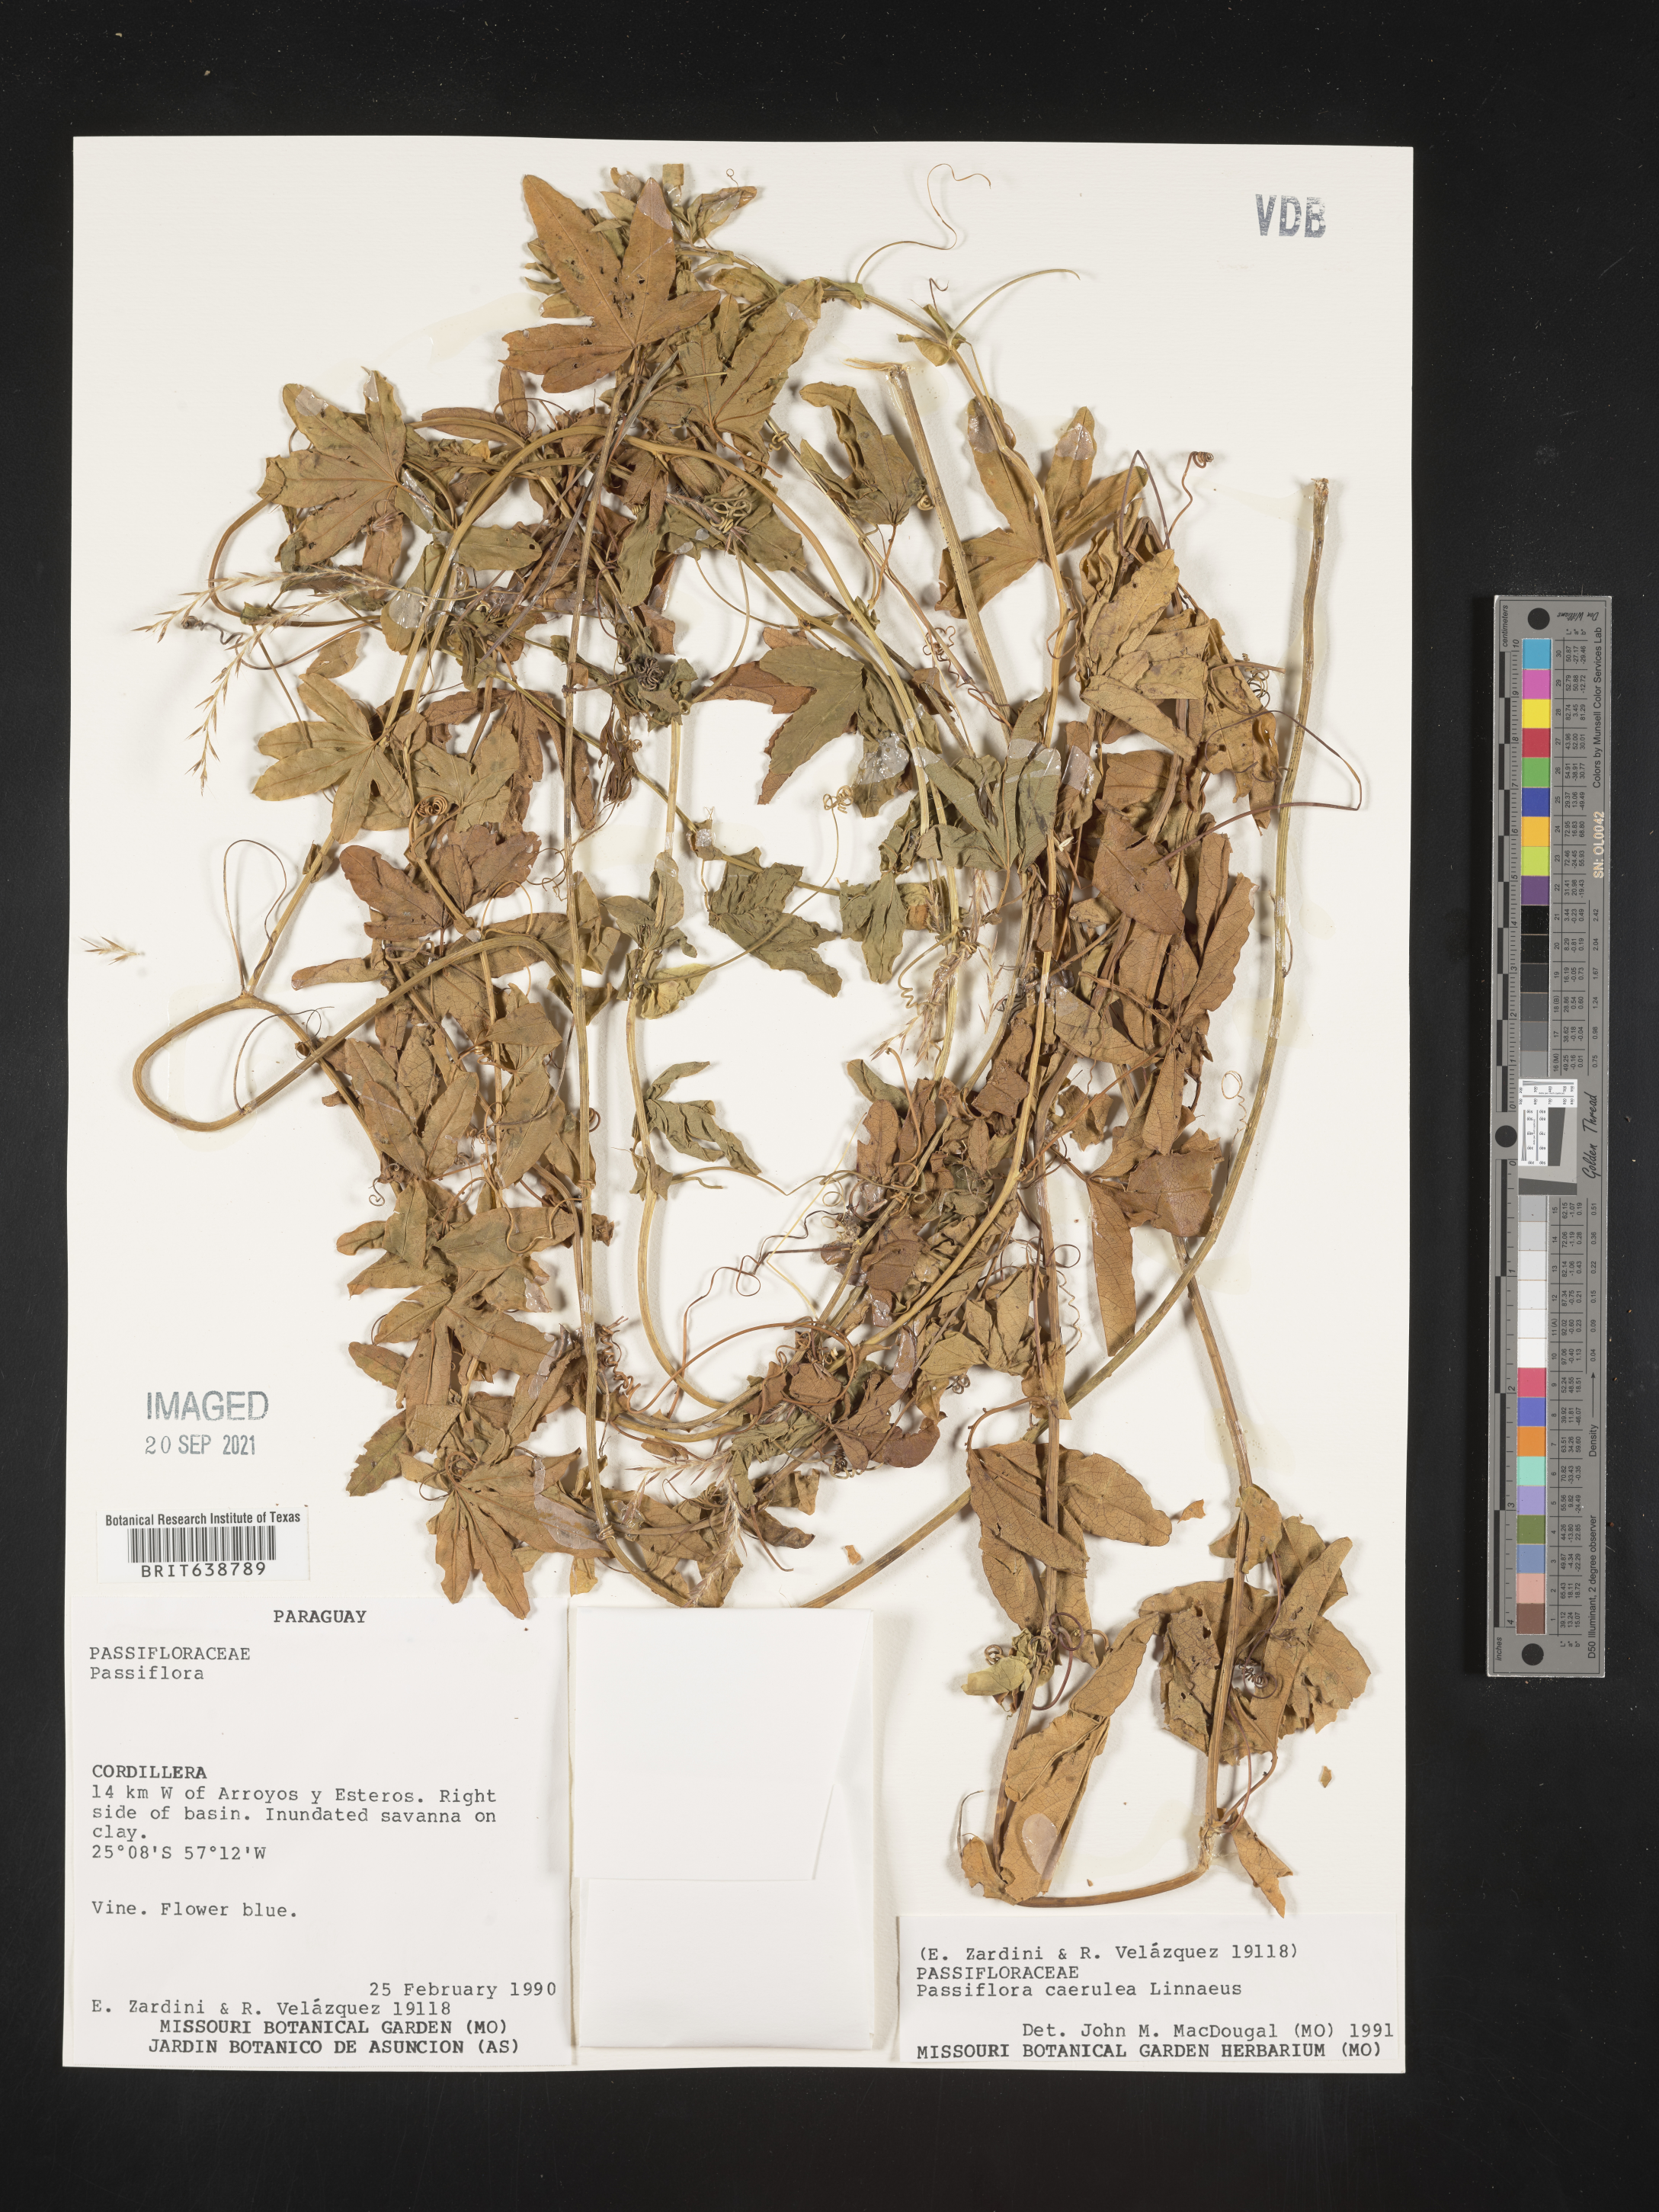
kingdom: Plantae
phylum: Tracheophyta
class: Magnoliopsida
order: Malpighiales
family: Passifloraceae
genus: Passiflora
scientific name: Passiflora
